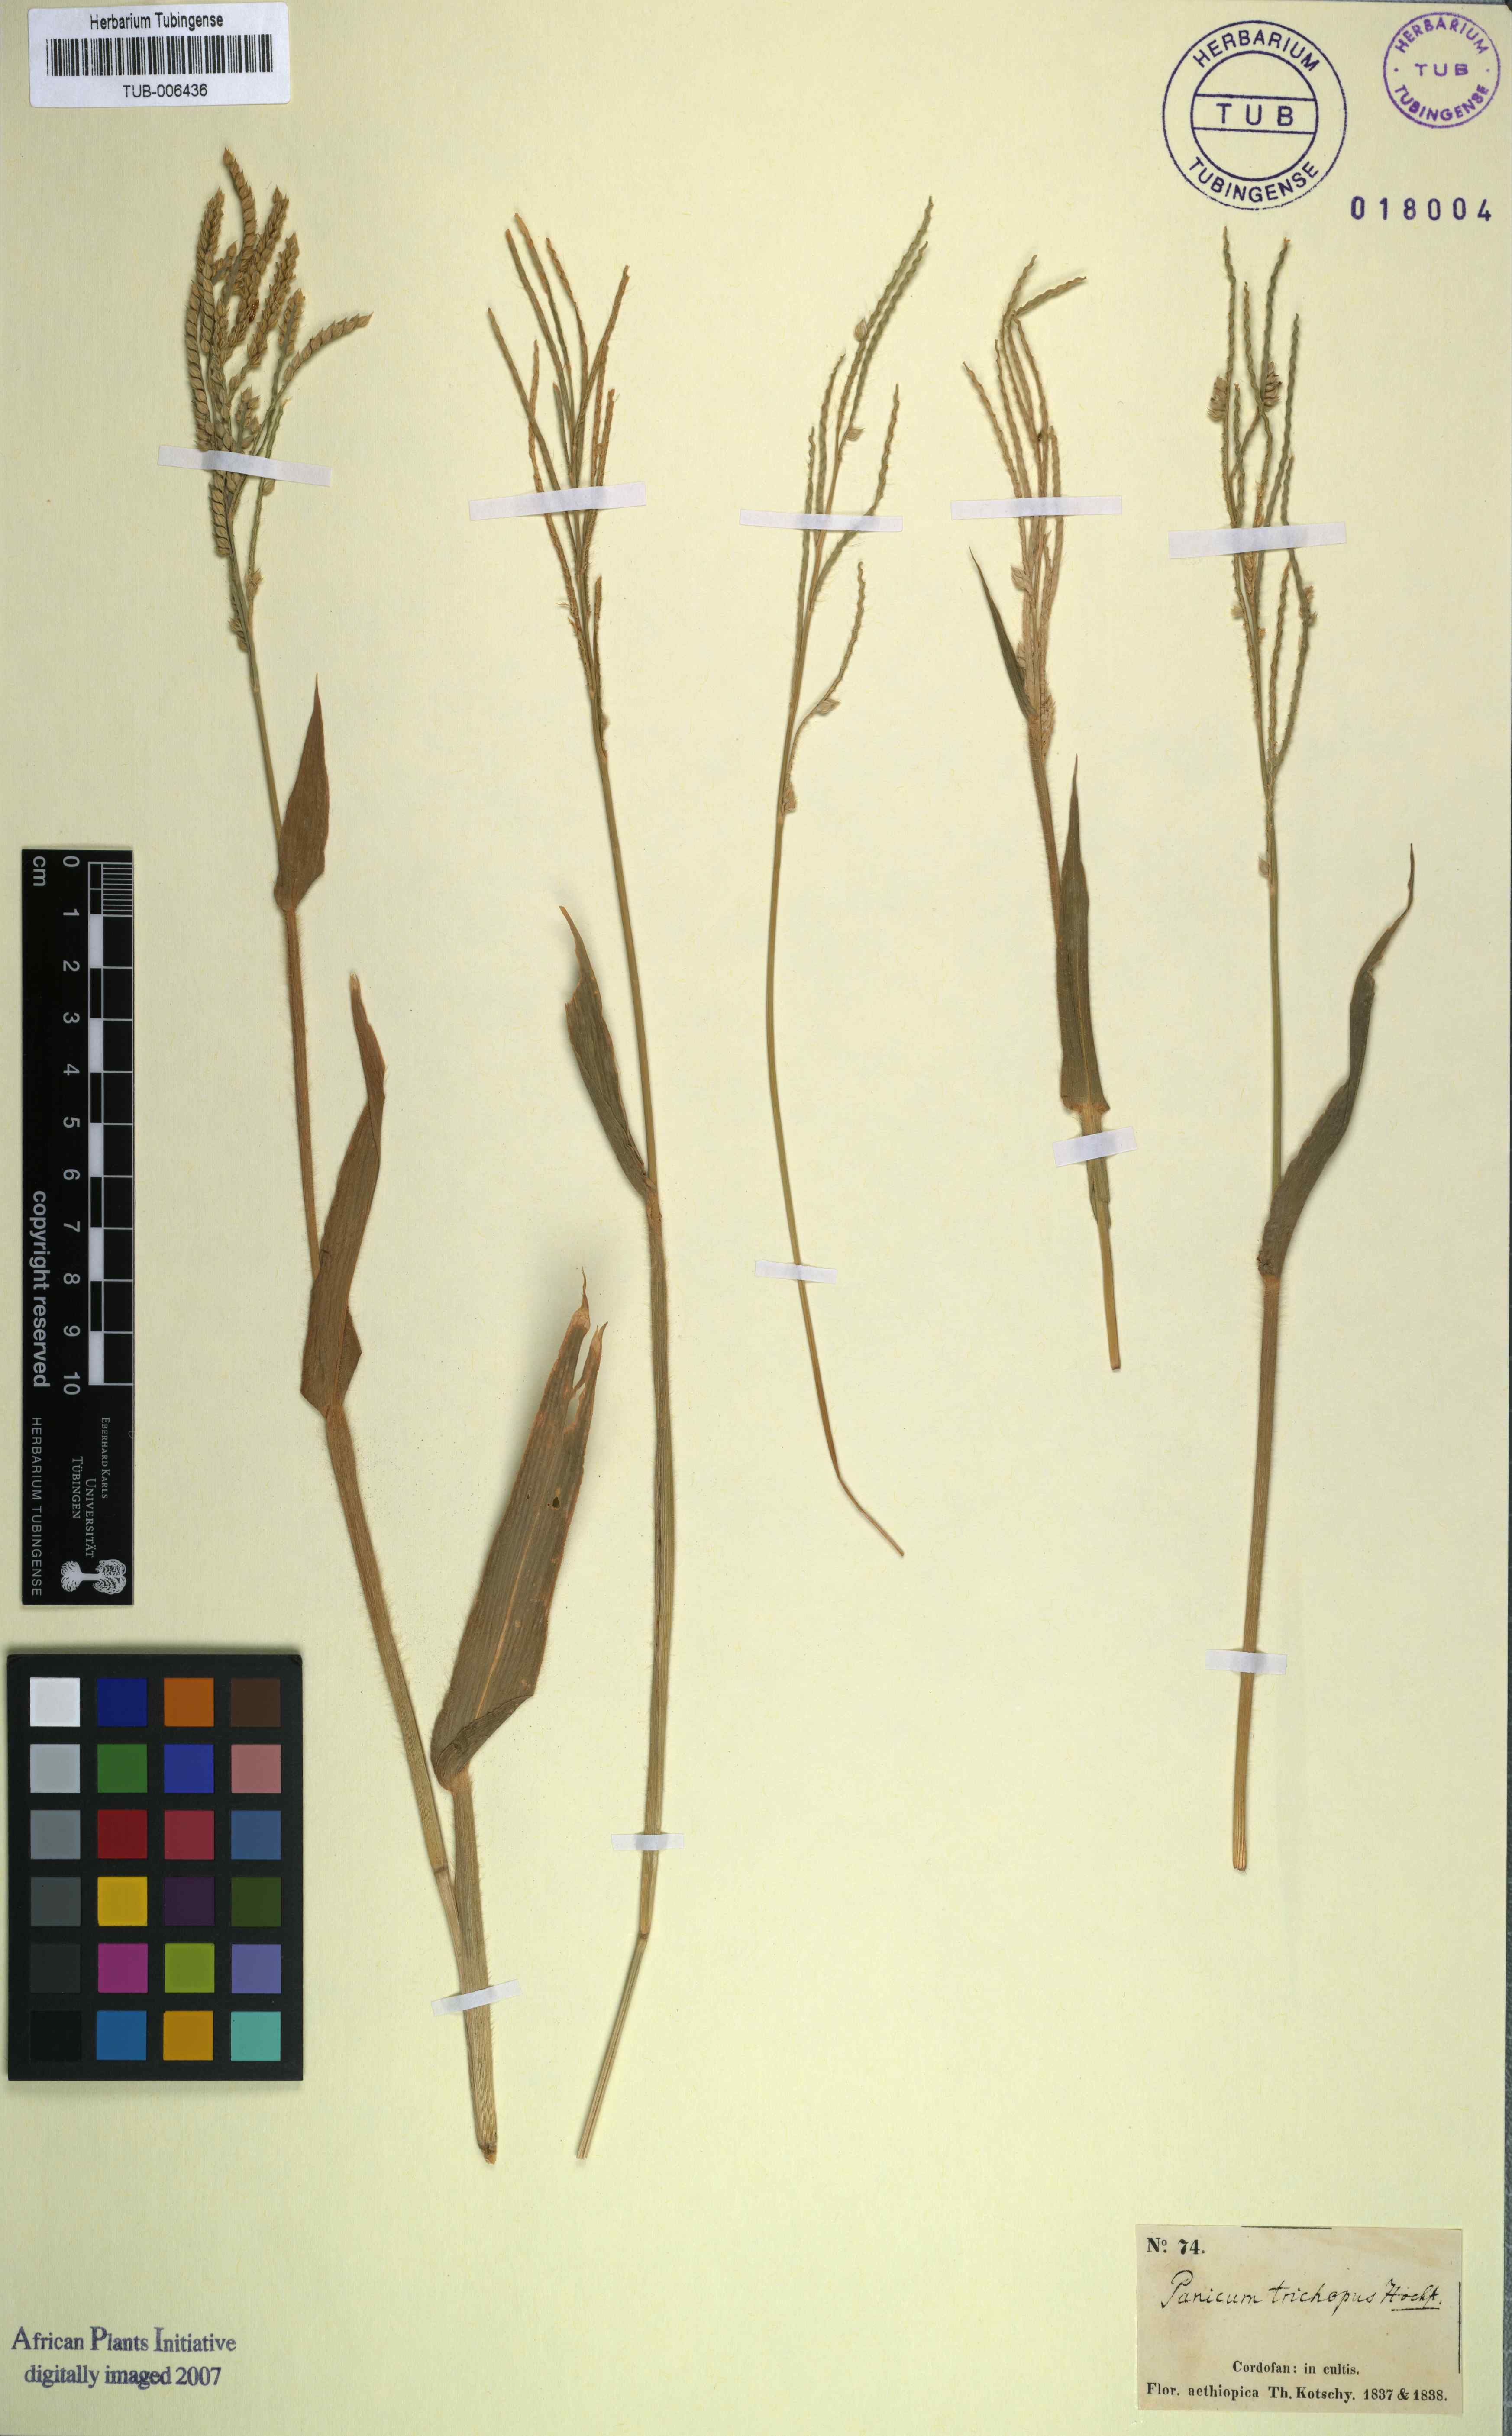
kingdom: Plantae
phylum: Tracheophyta
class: Liliopsida
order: Poales
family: Poaceae
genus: Urochloa
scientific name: Urochloa panicoides
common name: Sharp-flowered signal-grass
